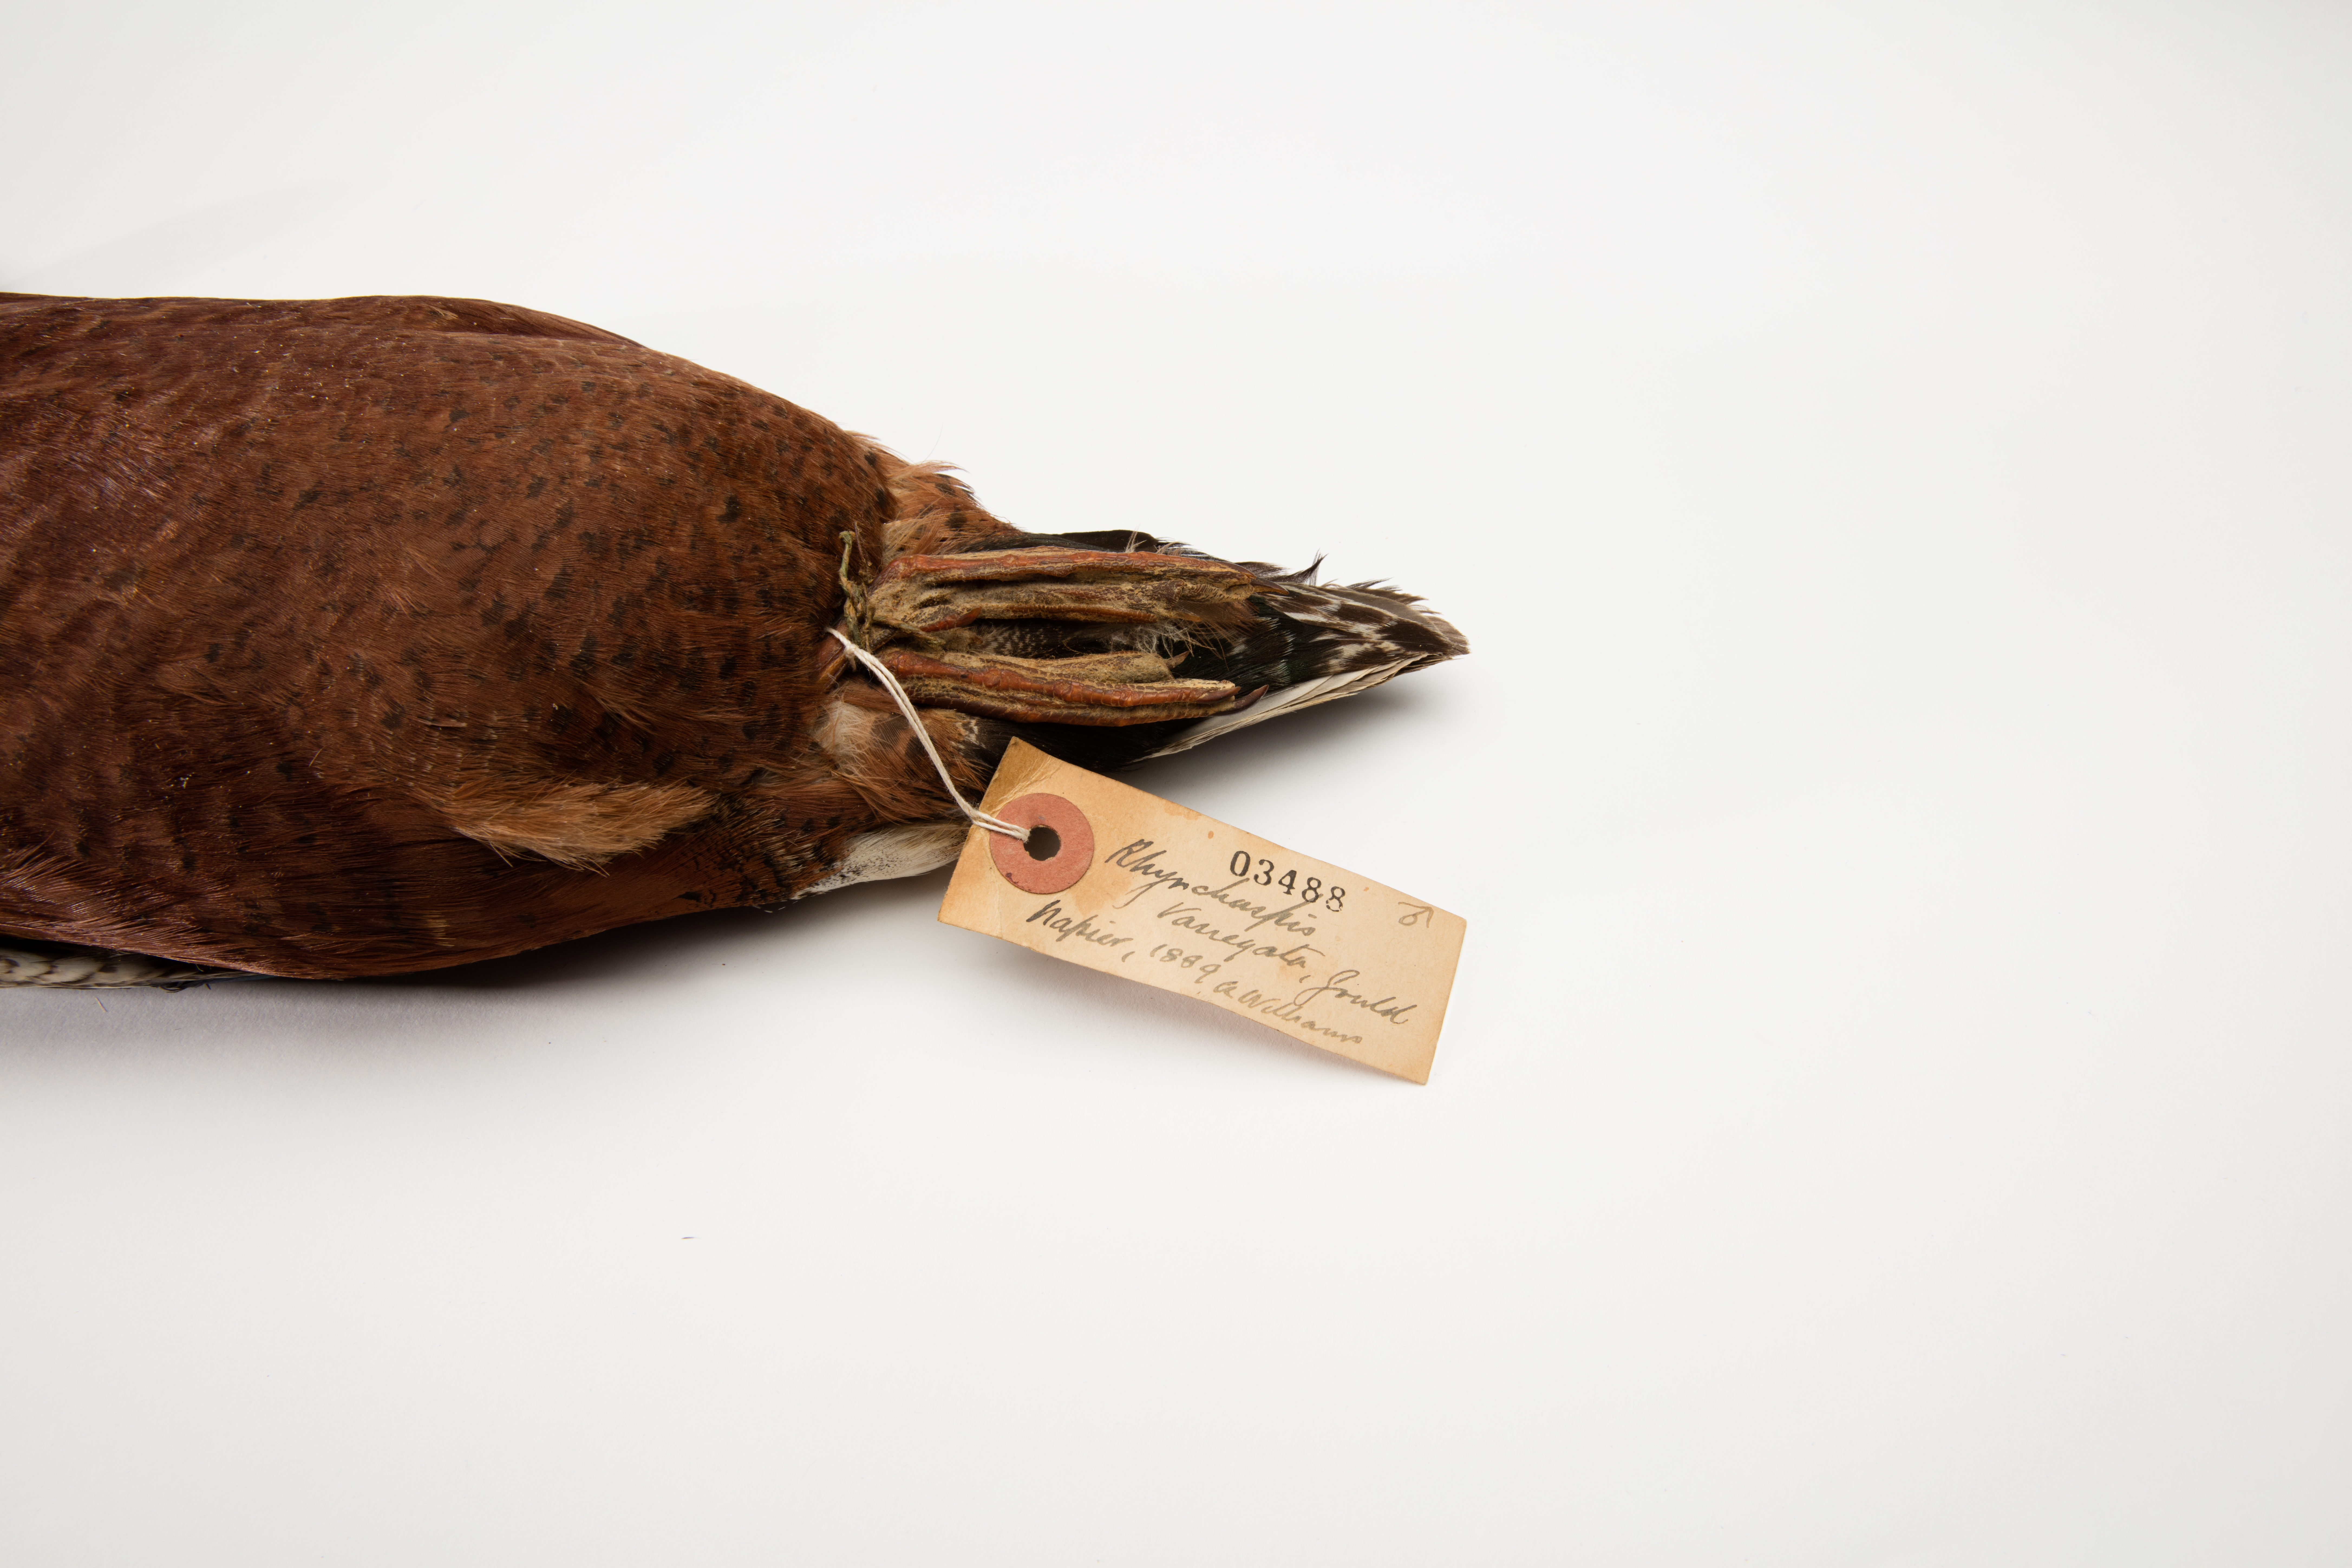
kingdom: Animalia
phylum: Chordata
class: Aves
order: Anseriformes
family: Anatidae
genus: Spatula
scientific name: Spatula rhynchotis
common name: Australian shoveler
